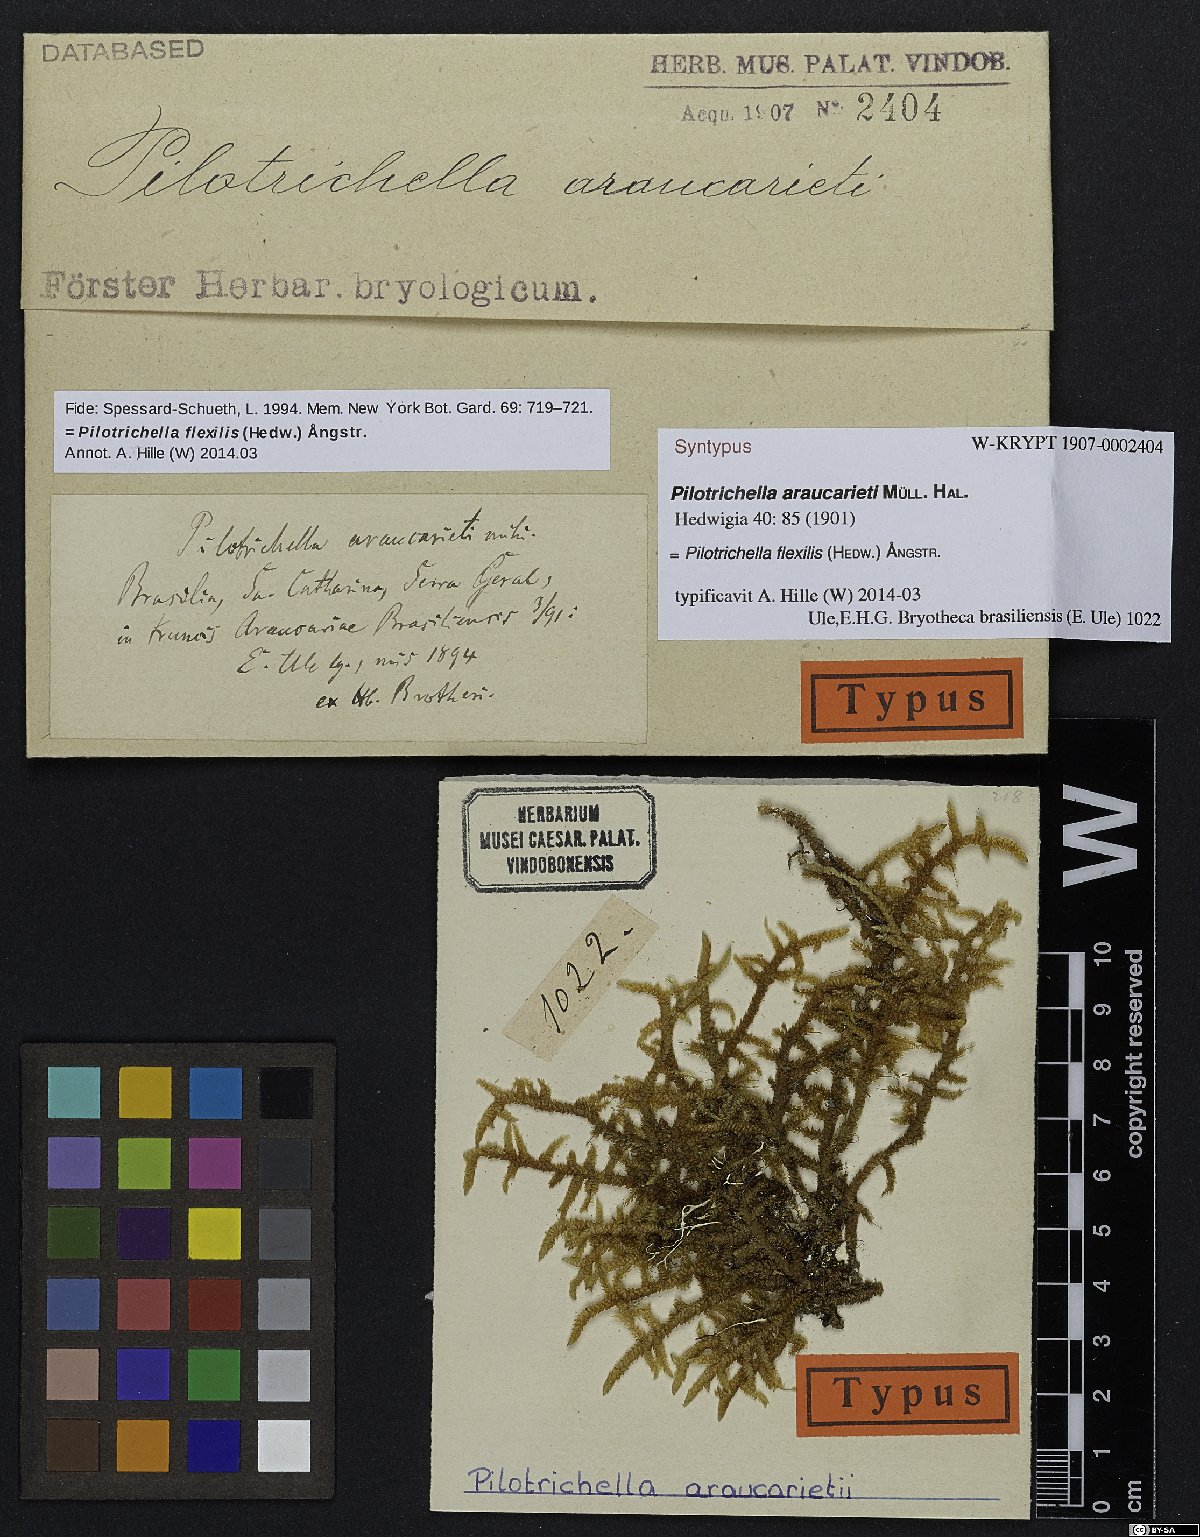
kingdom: Plantae
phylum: Bryophyta
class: Bryopsida
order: Hypnales
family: Lembophyllaceae
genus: Pilotrichella
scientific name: Pilotrichella flexilis
